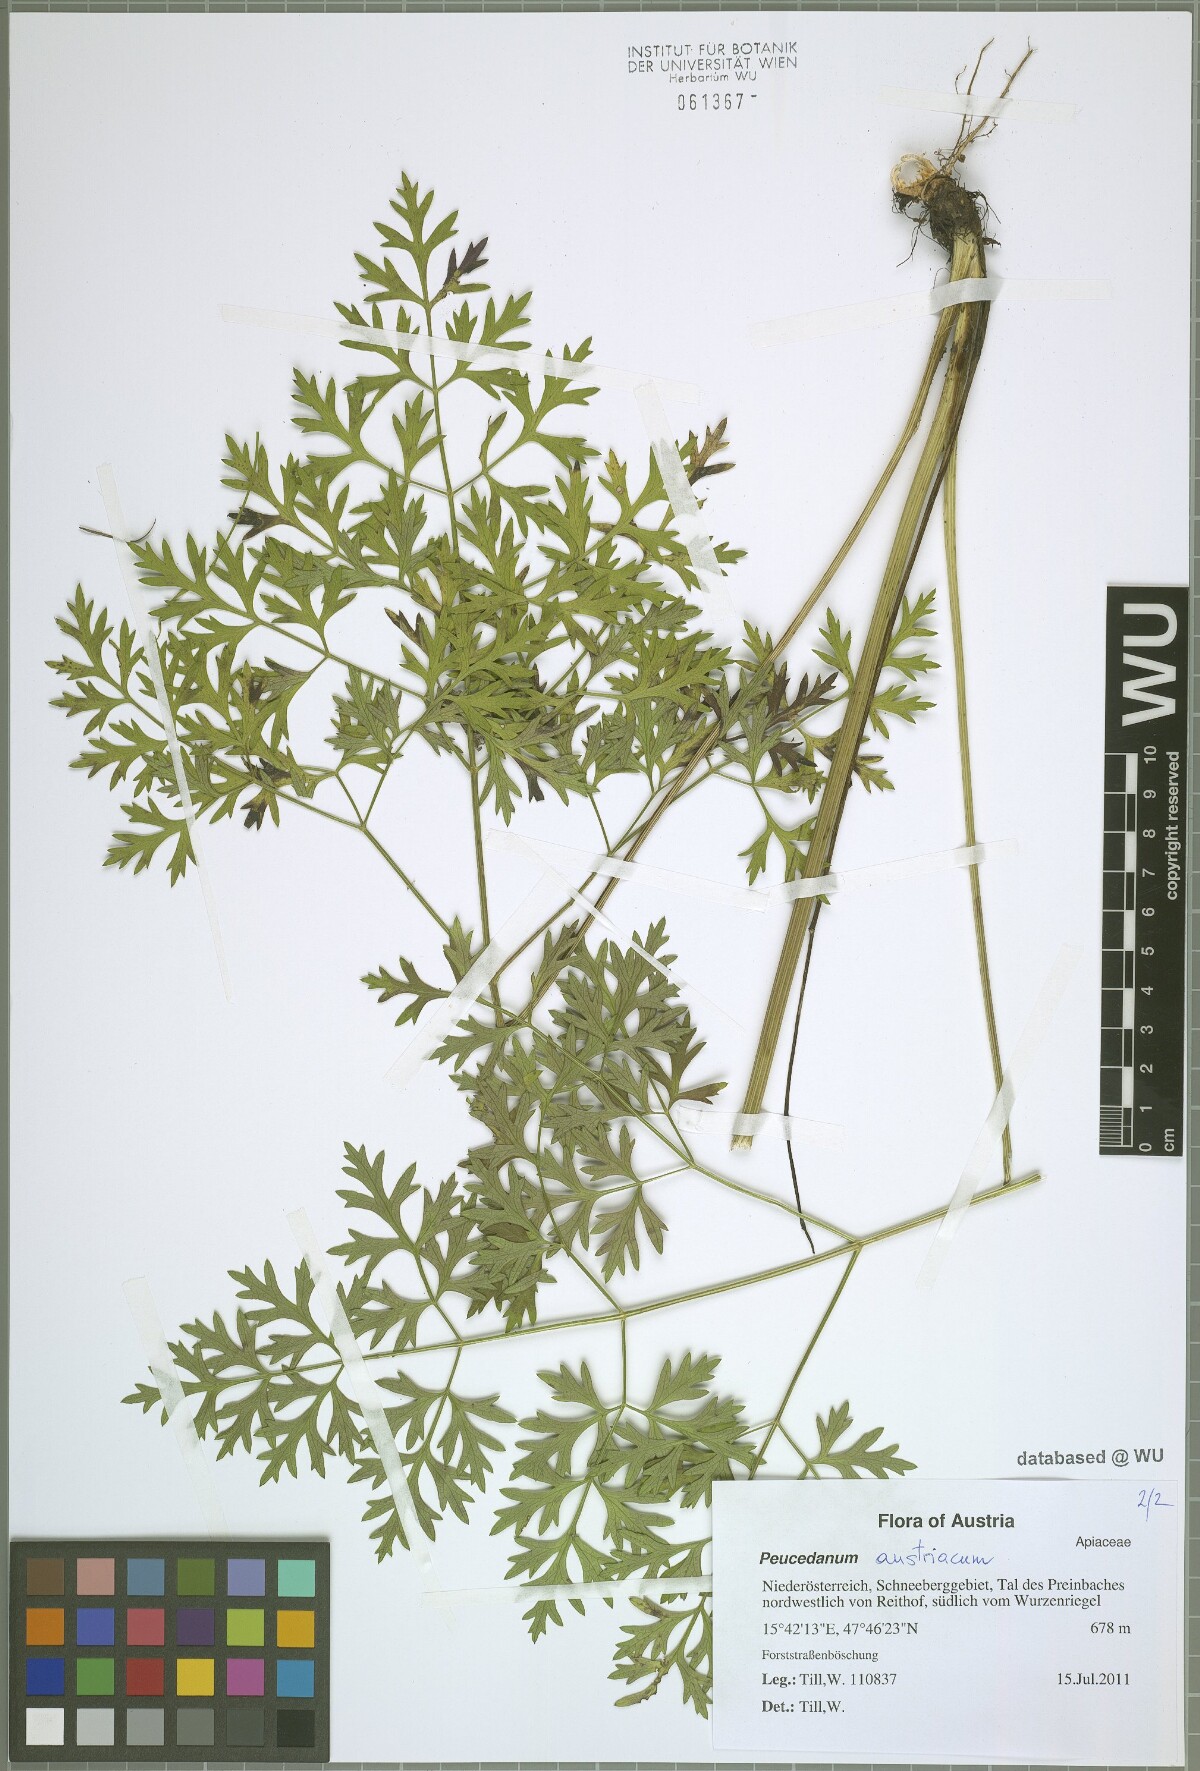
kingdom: Plantae
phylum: Tracheophyta
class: Magnoliopsida
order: Apiales
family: Apiaceae
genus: Peucedanum
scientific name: Peucedanum austriacum
